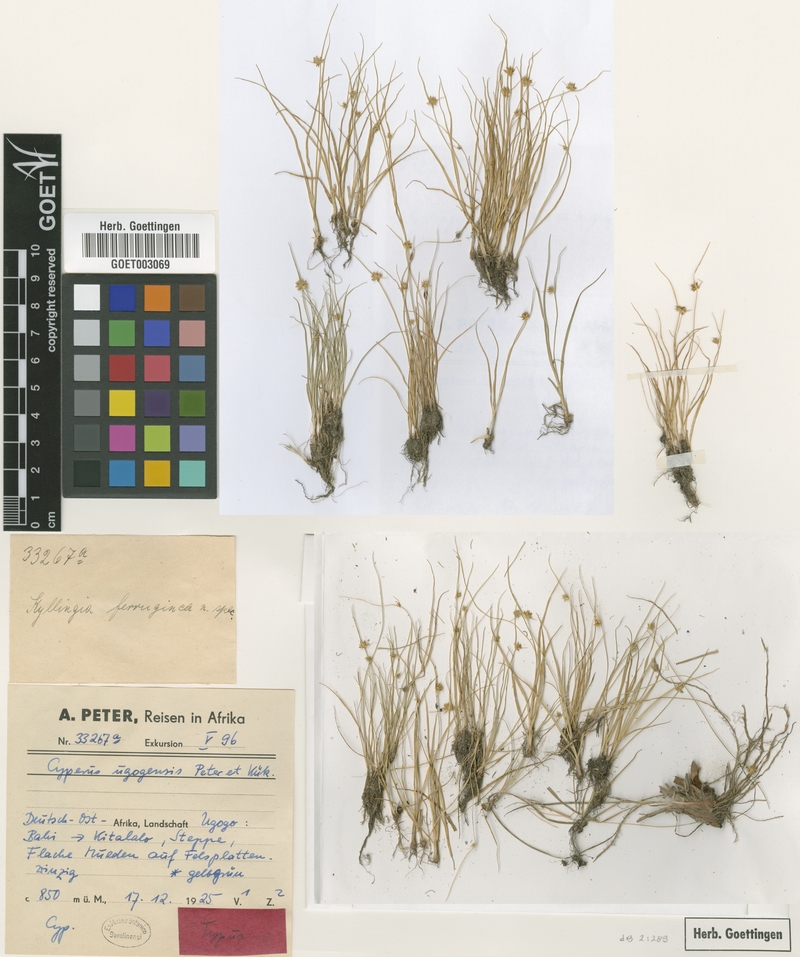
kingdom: Plantae
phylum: Tracheophyta
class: Liliopsida
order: Poales
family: Cyperaceae
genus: Cyperus
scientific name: Cyperus ugogensis
